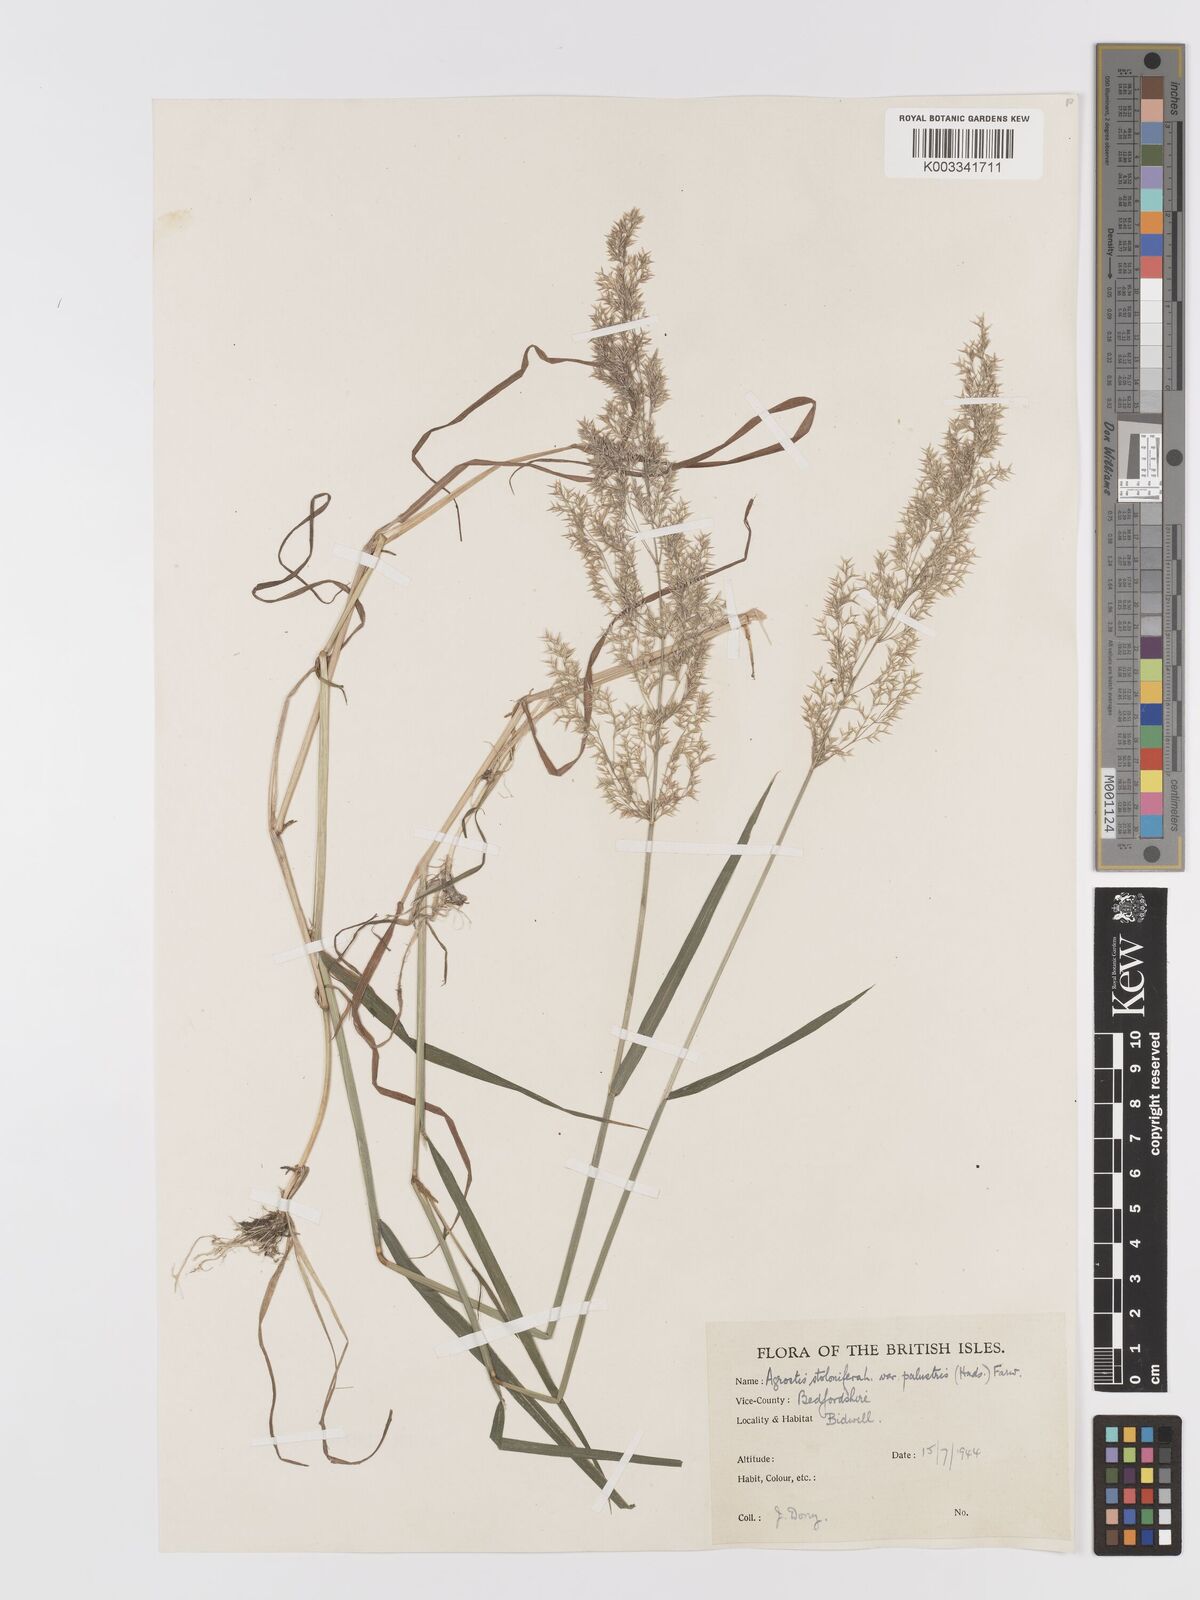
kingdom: Plantae
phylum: Tracheophyta
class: Liliopsida
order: Poales
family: Poaceae
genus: Agrostis
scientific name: Agrostis stolonifera
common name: Creeping bentgrass
